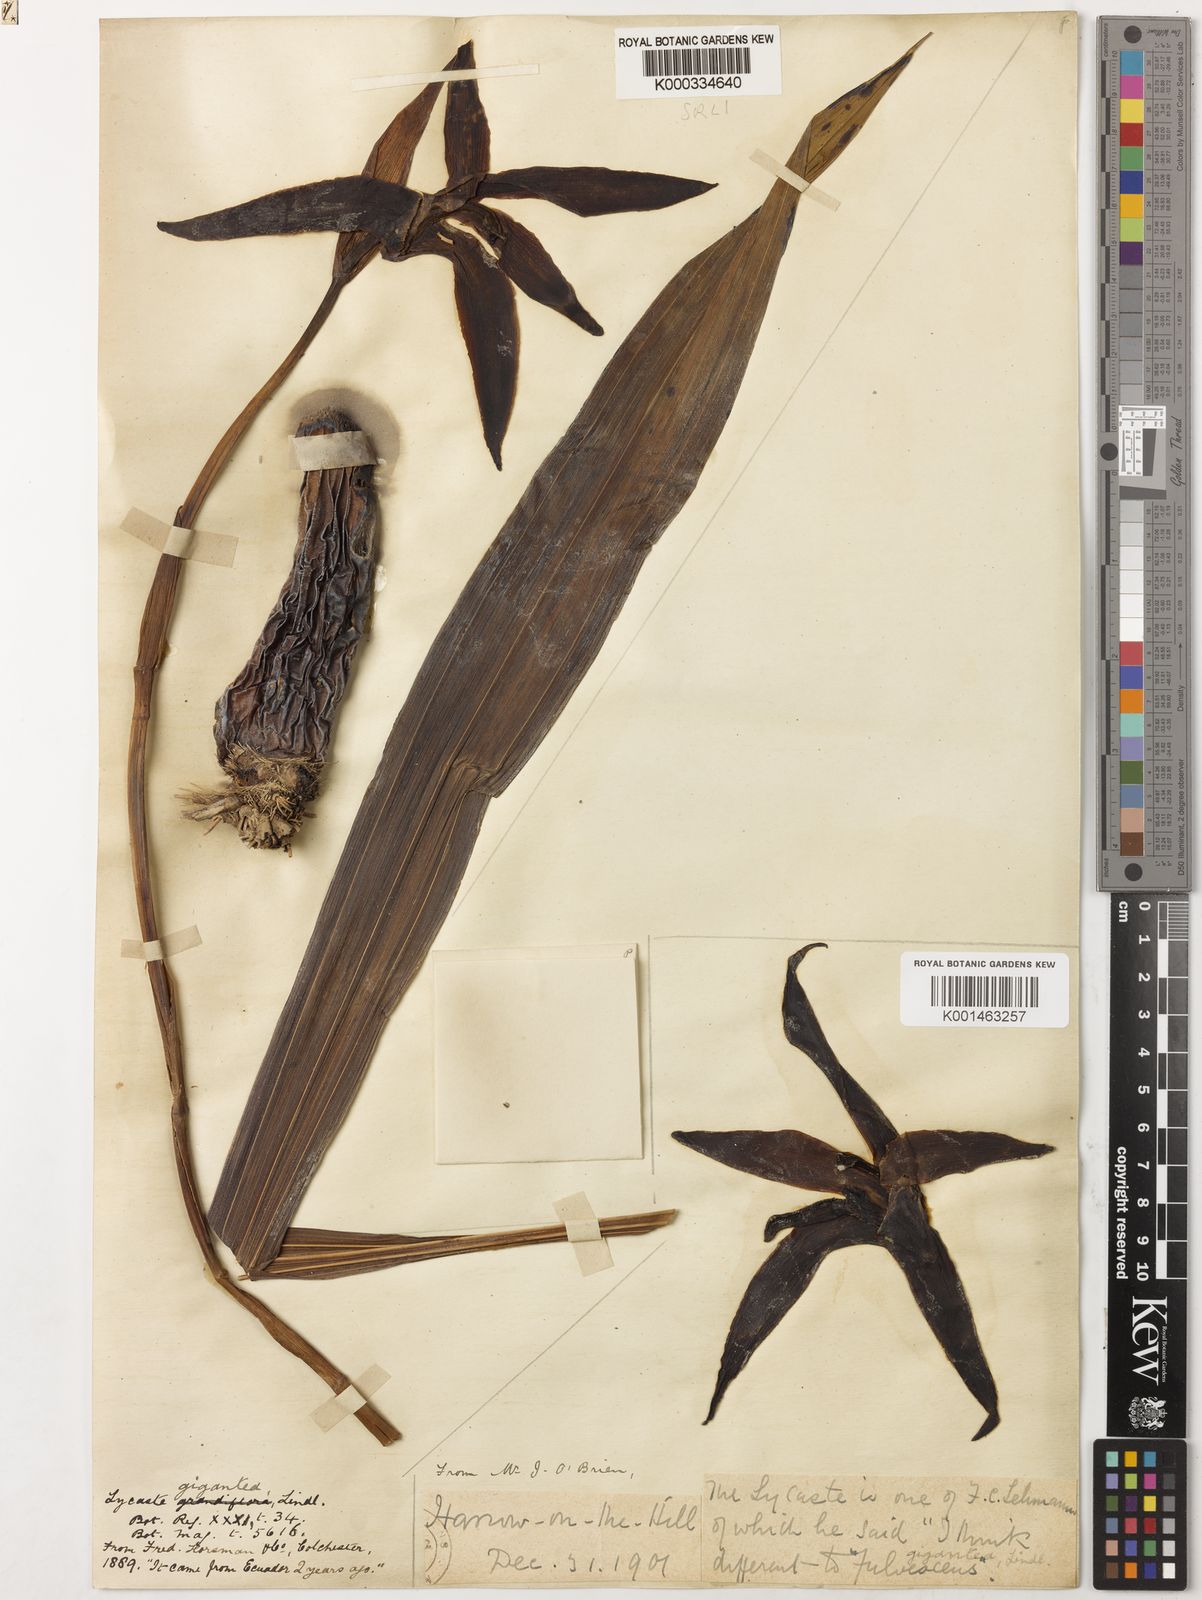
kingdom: Plantae
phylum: Tracheophyta
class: Liliopsida
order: Asparagales
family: Orchidaceae
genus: Ida
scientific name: Ida gigantea
